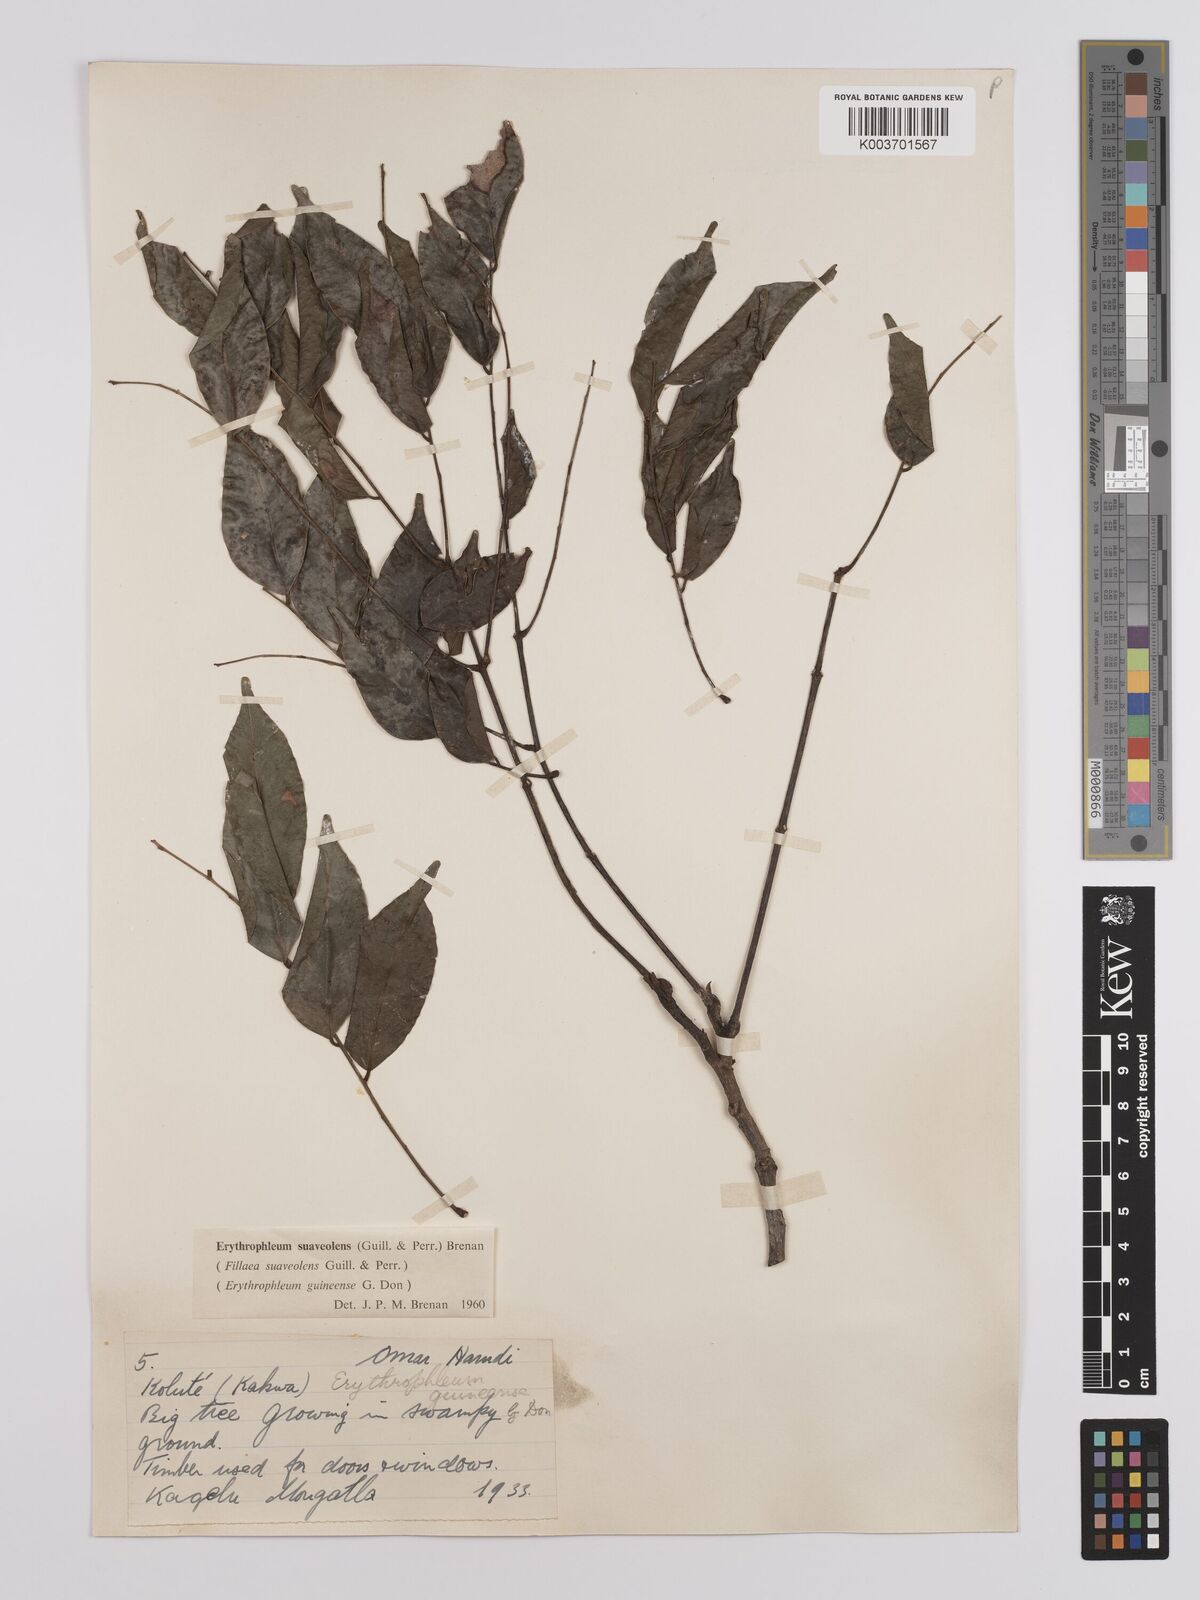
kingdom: Plantae
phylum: Tracheophyta
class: Magnoliopsida
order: Fabales
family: Fabaceae
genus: Erythrophleum
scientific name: Erythrophleum suaveolens
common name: Ordeal tree
